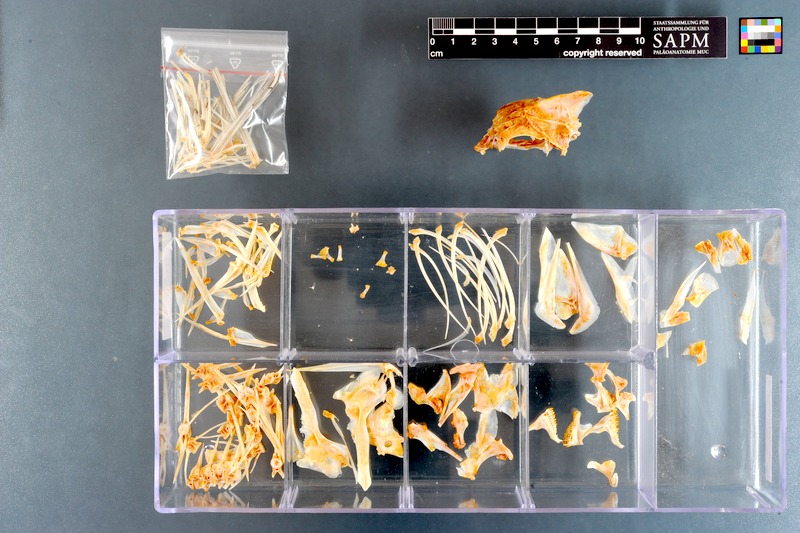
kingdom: Animalia
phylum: Chordata
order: Perciformes
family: Sparidae
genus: Polyamblyodon
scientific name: Polyamblyodon germanum
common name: German seabream
